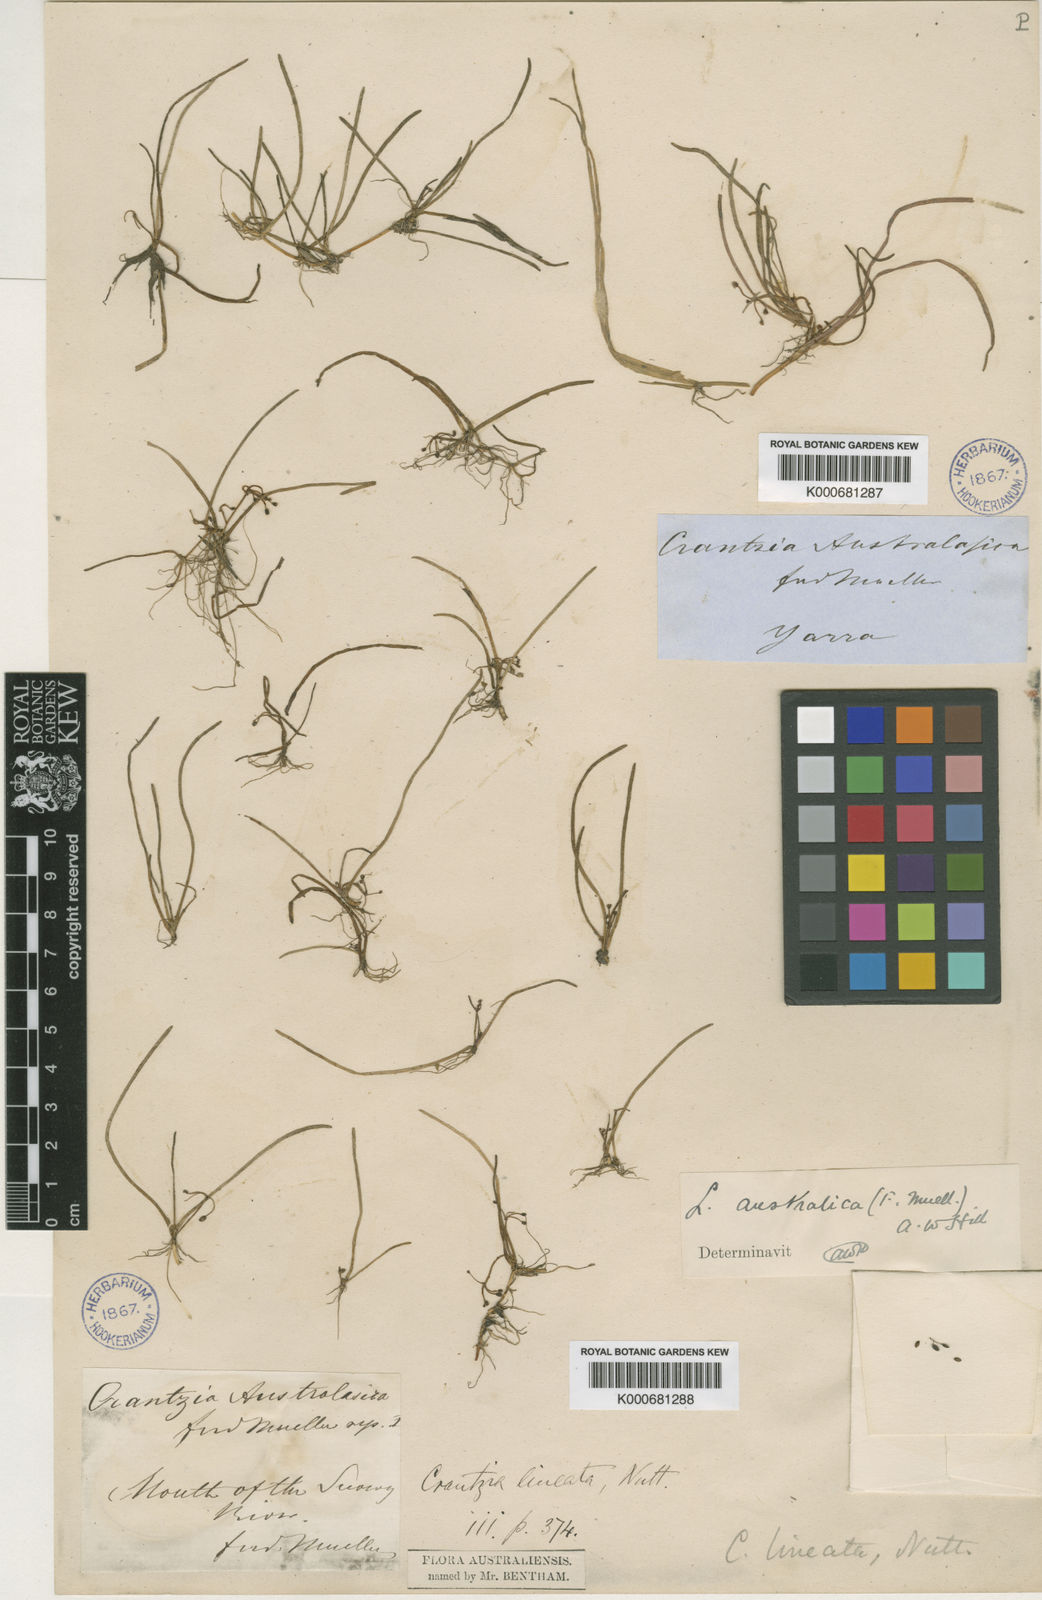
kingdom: Plantae
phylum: Tracheophyta
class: Magnoliopsida
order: Apiales
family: Apiaceae
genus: Lilaeopsis
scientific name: Lilaeopsis polyantha
